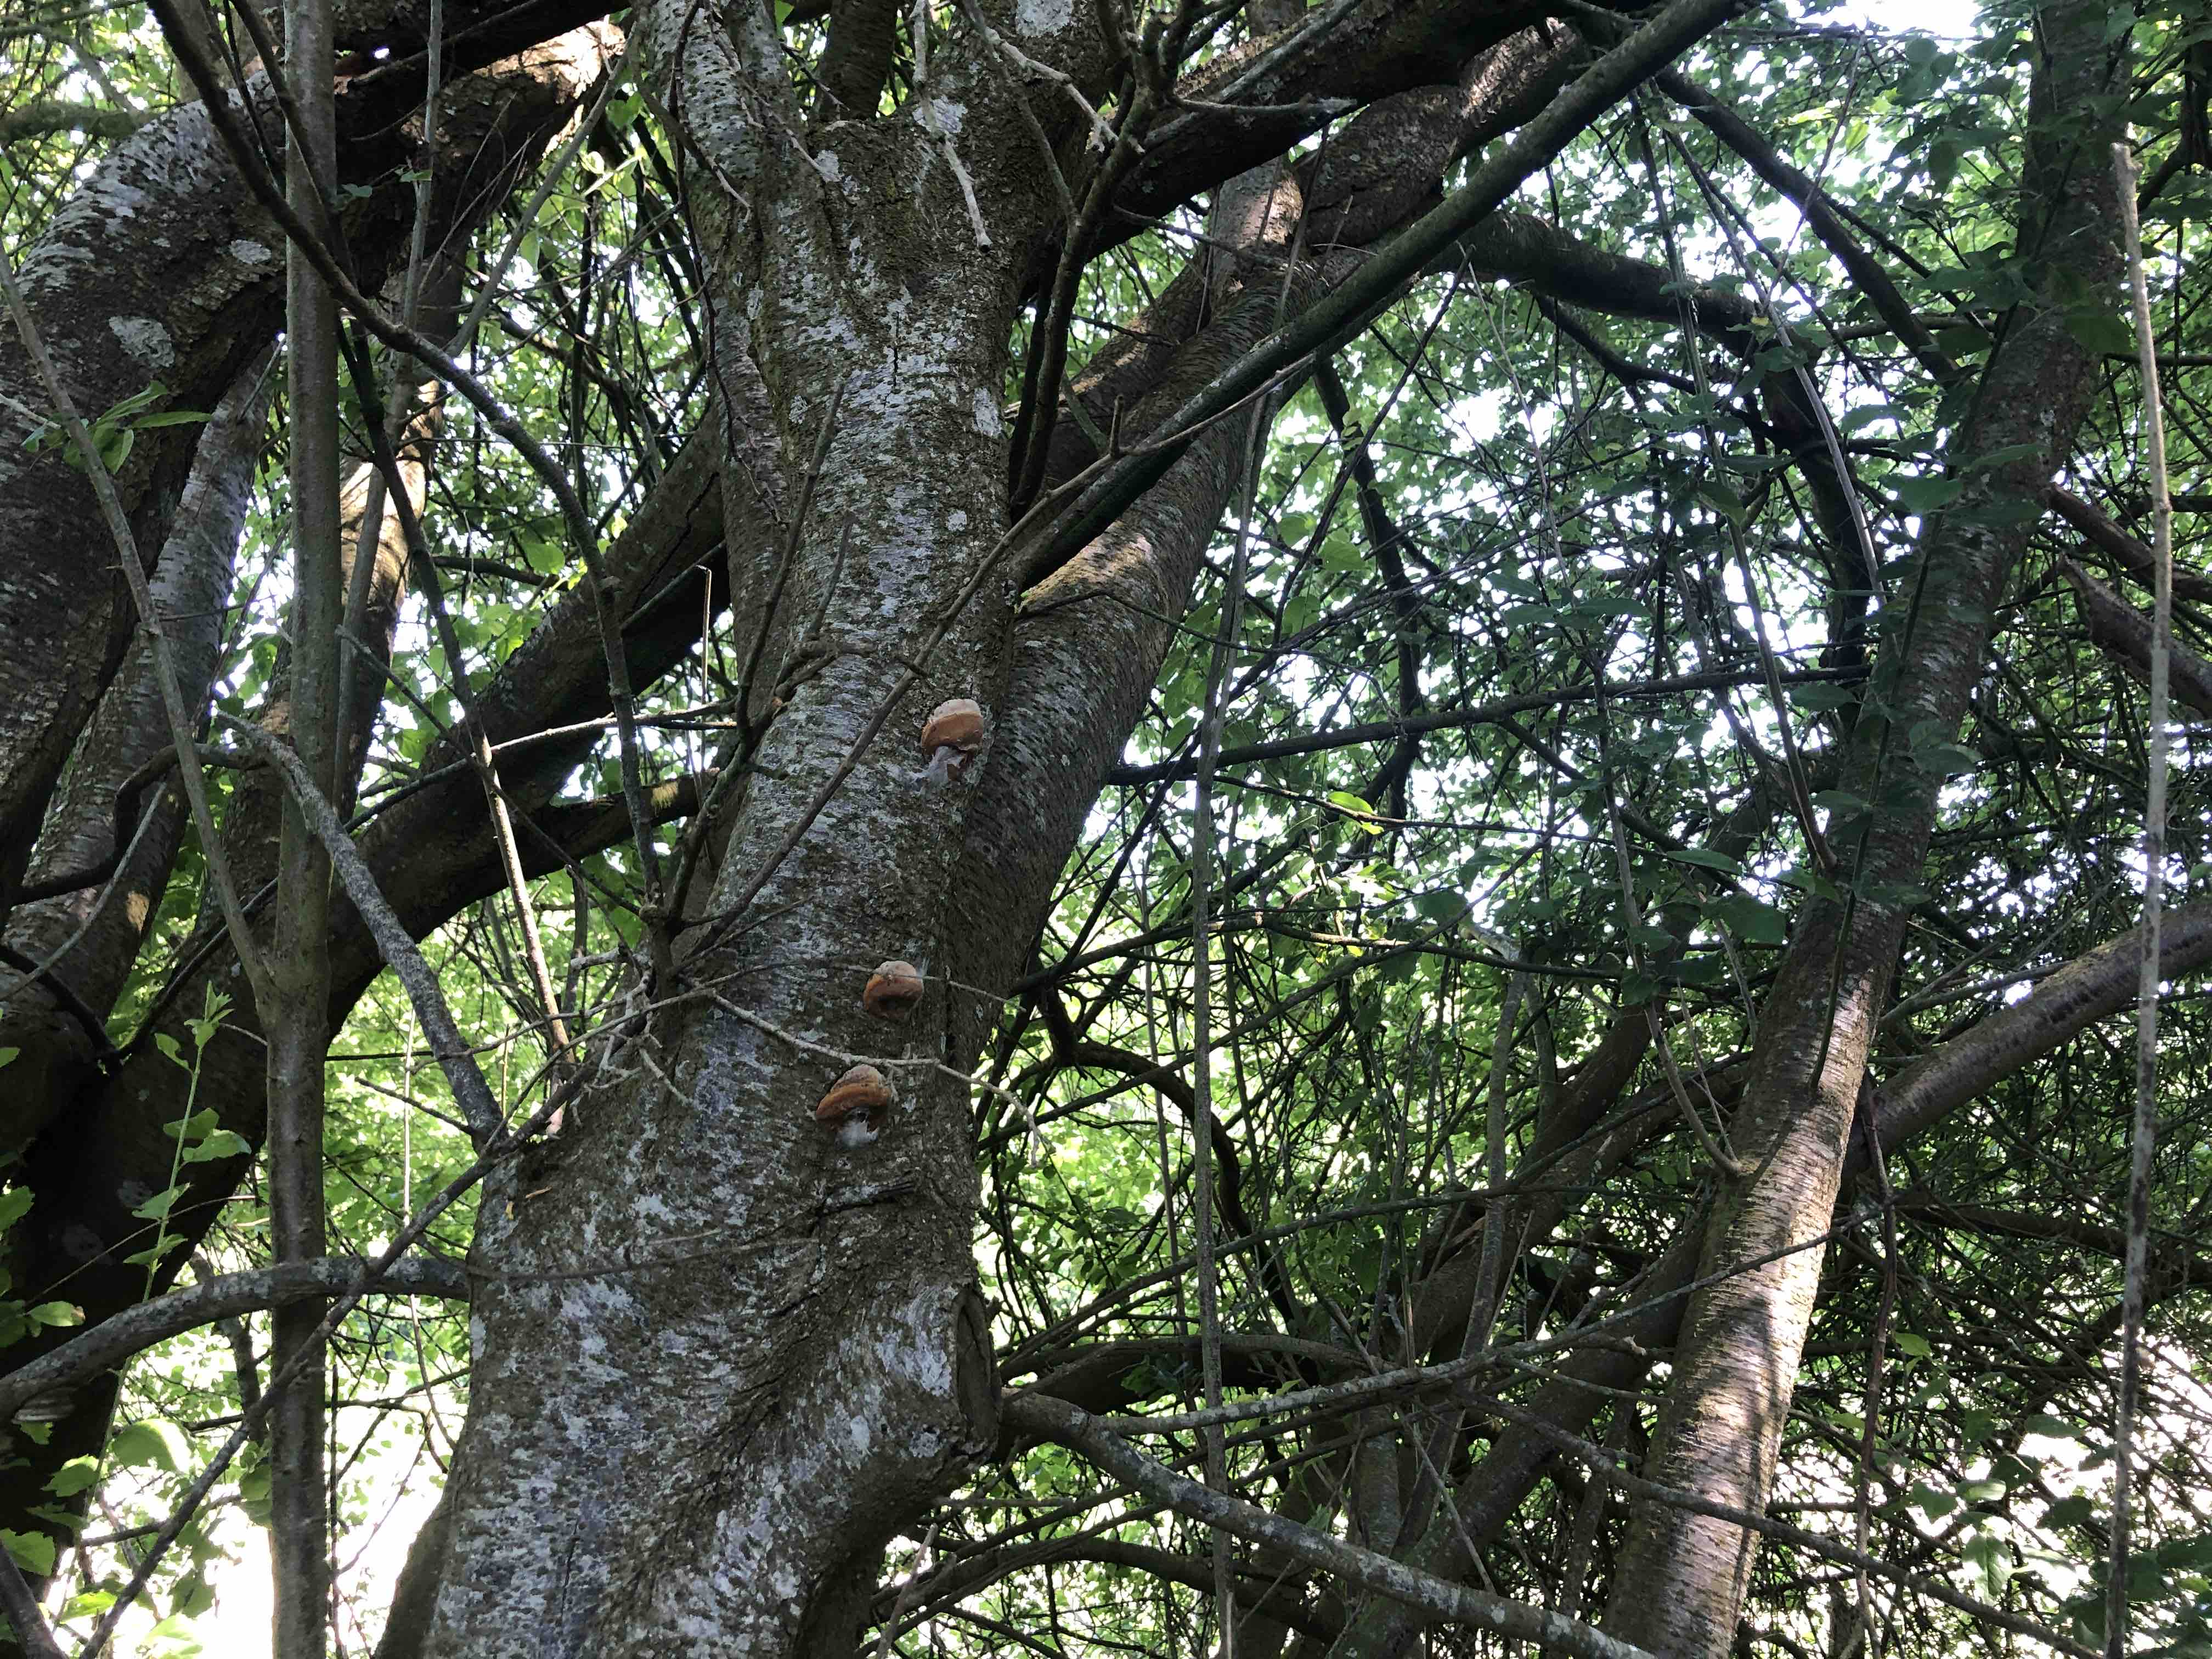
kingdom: Fungi
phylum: Basidiomycota
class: Agaricomycetes
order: Hymenochaetales
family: Hymenochaetaceae
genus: Phellinus
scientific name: Phellinus pomaceus
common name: blomme-ildporesvamp
